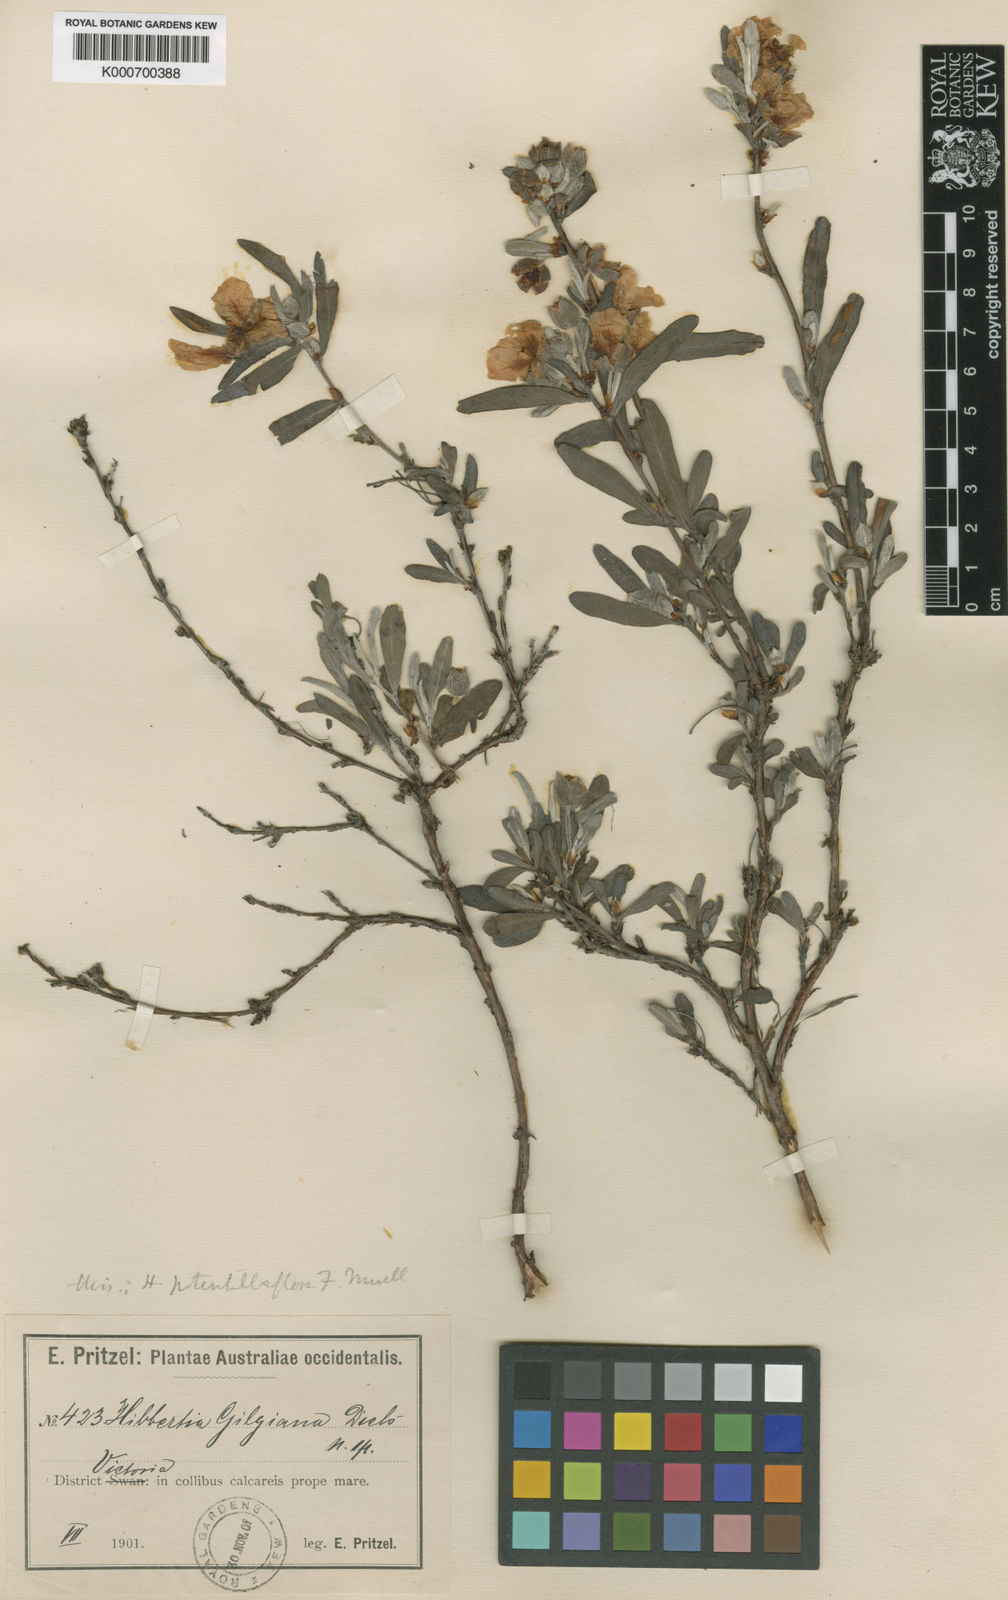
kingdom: Plantae
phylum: Tracheophyta
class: Magnoliopsida
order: Dilleniales
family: Dilleniaceae
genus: Hibbertia
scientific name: Hibbertia pilosa
